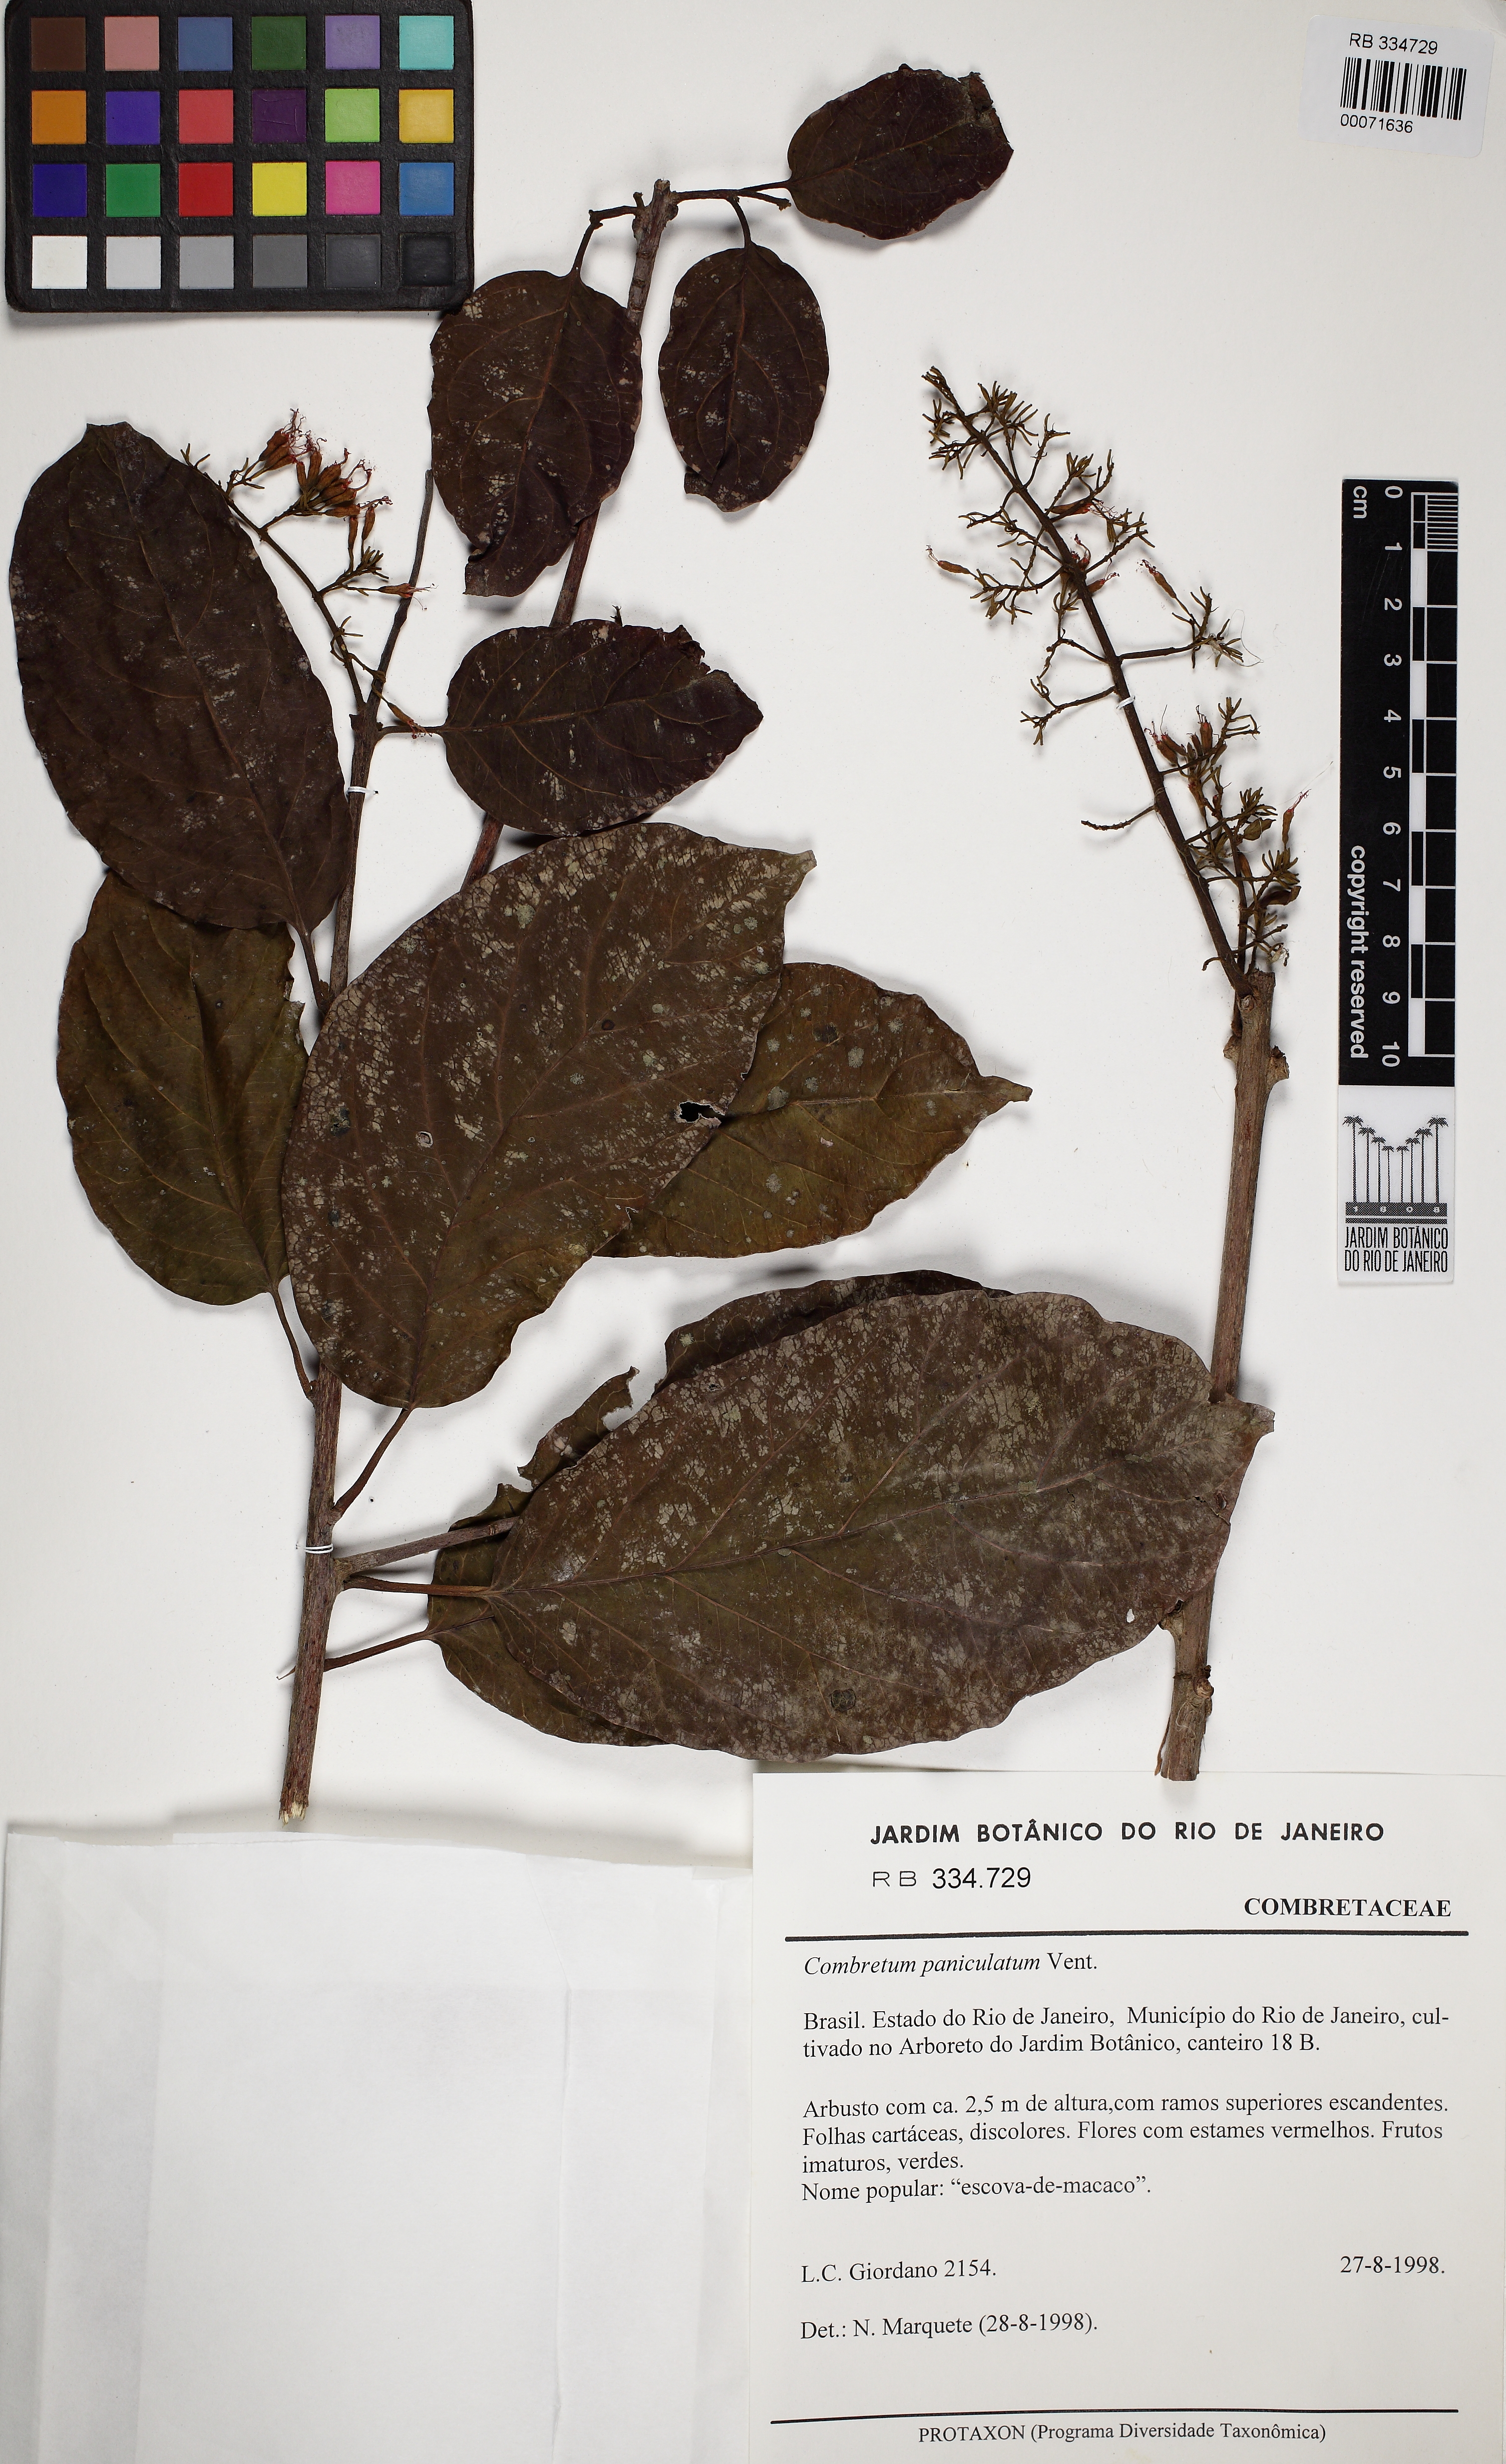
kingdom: Plantae
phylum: Tracheophyta
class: Magnoliopsida
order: Myrtales
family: Combretaceae
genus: Combretum
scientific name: Combretum paniculatum
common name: Fire vine
